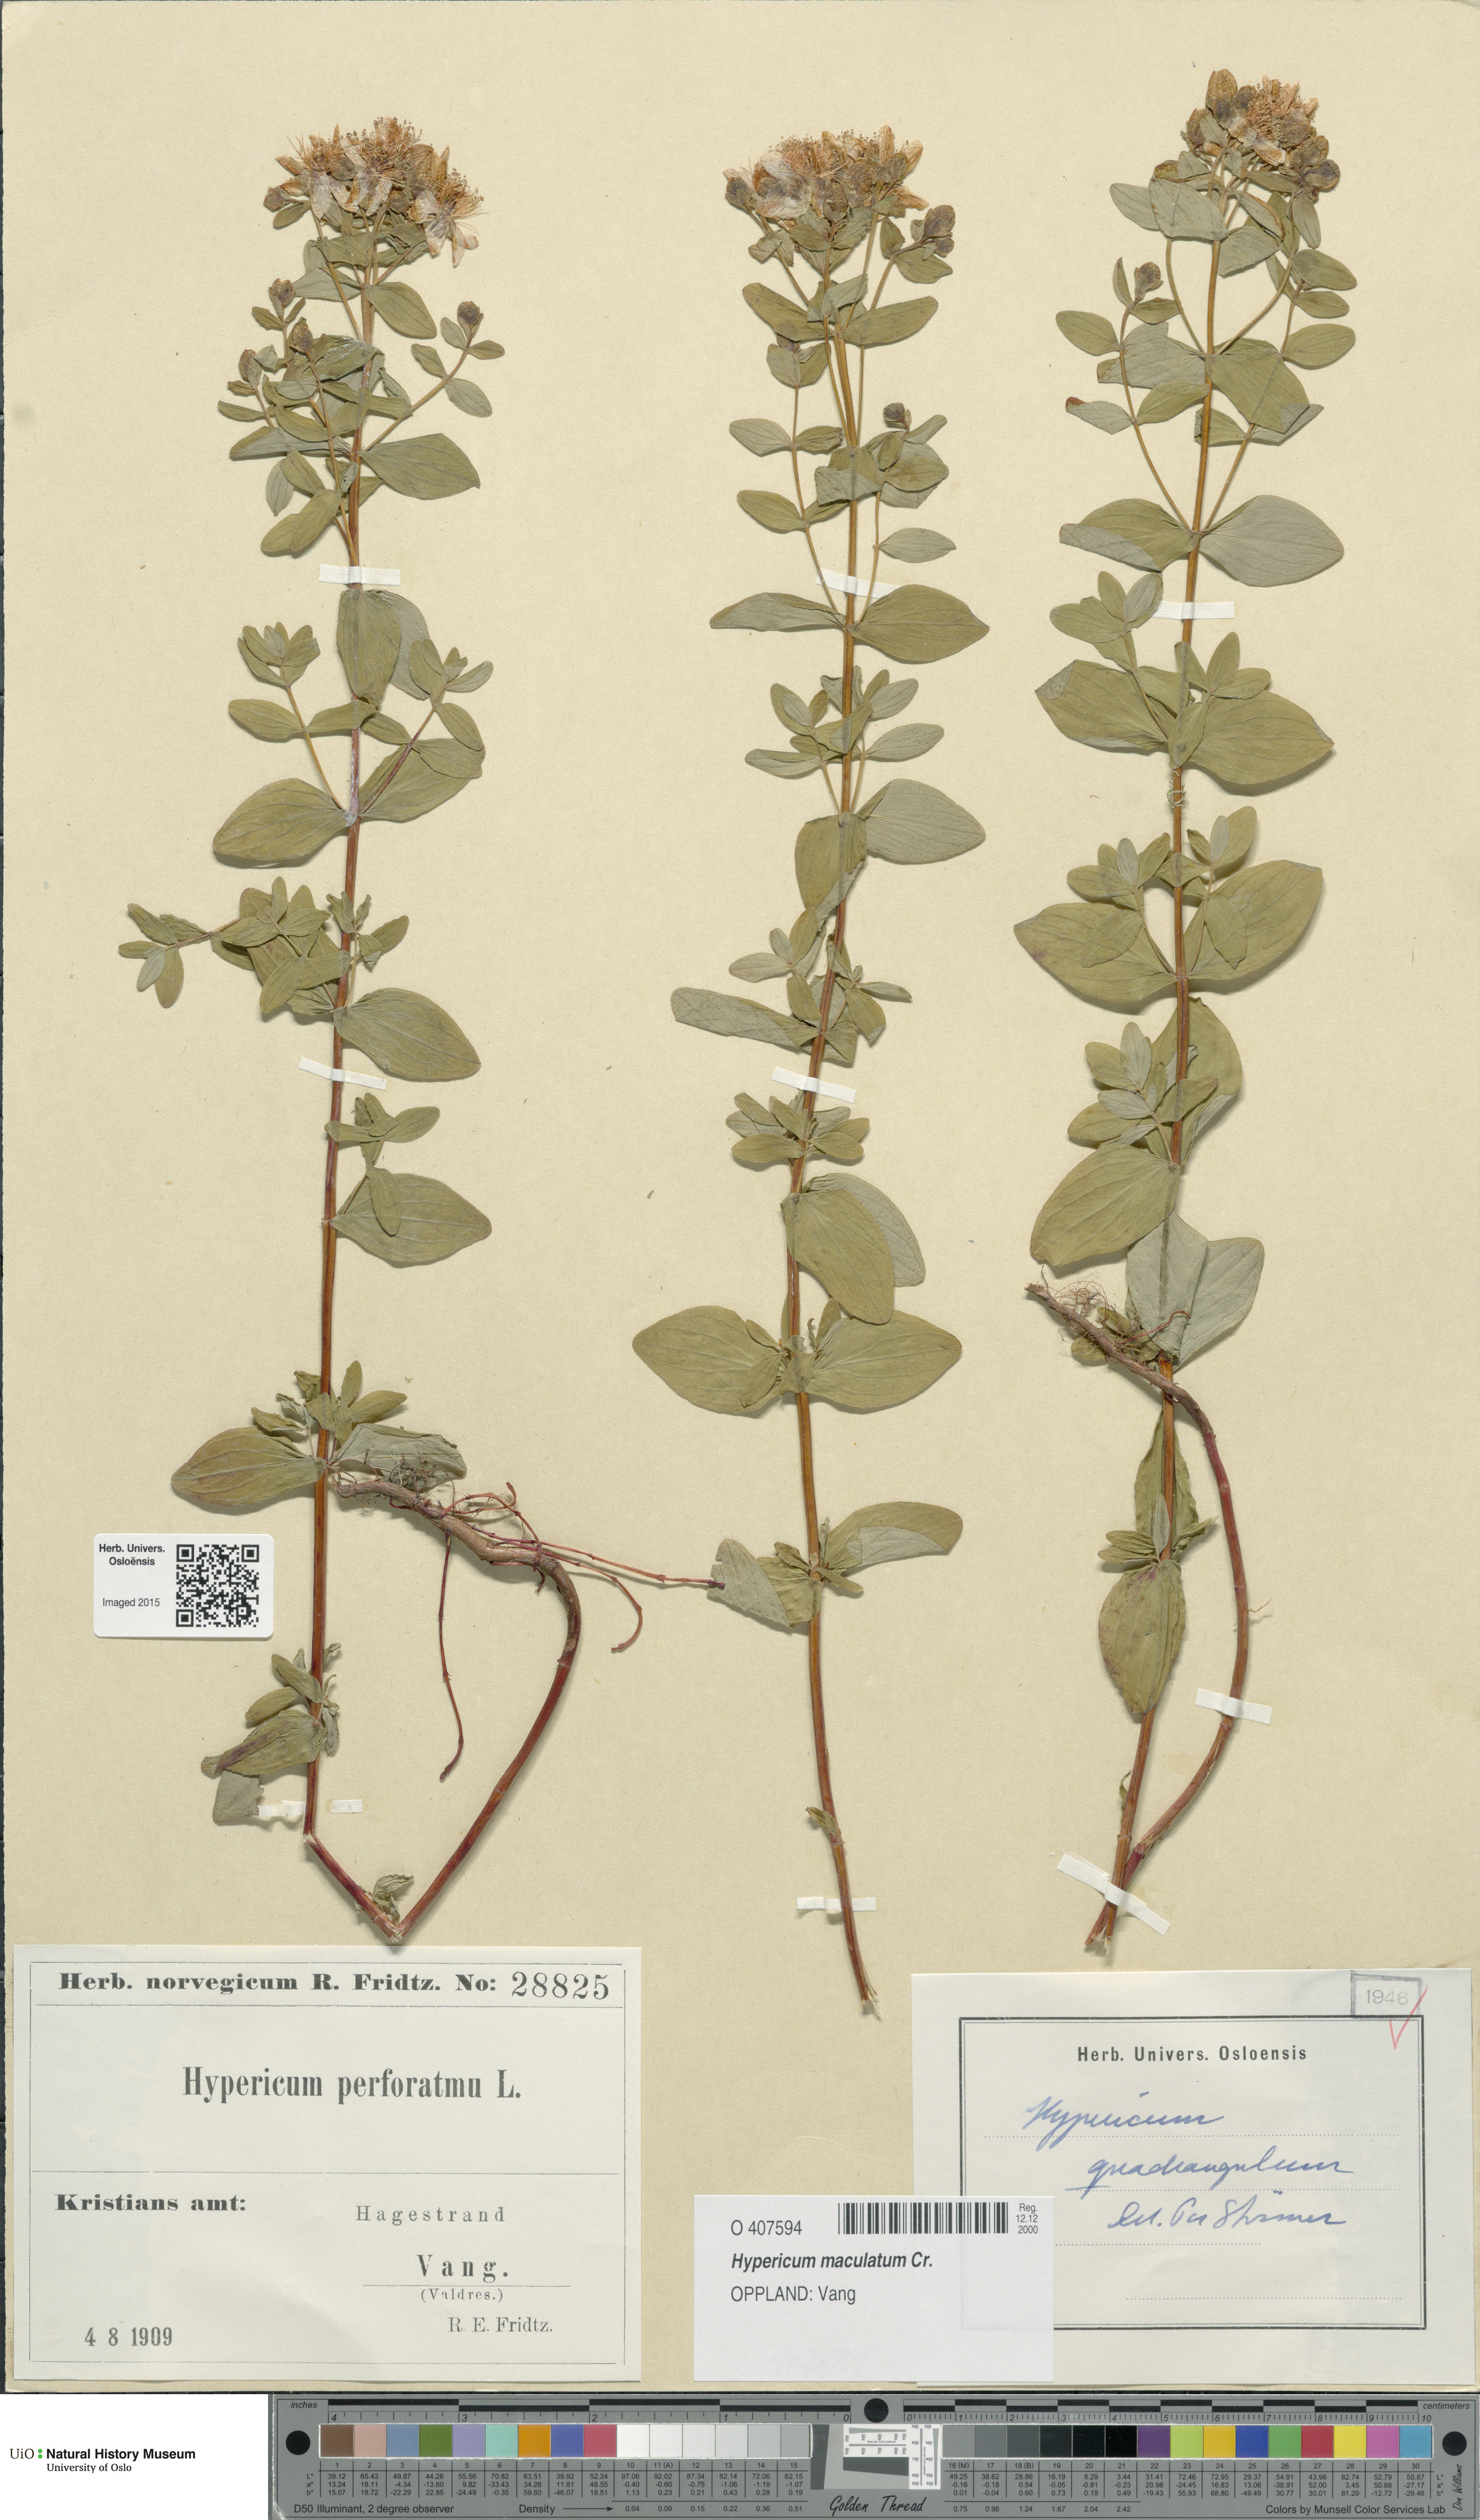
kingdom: Plantae
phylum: Tracheophyta
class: Magnoliopsida
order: Malpighiales
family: Hypericaceae
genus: Hypericum
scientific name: Hypericum maculatum
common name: Imperforate st. john's-wort
